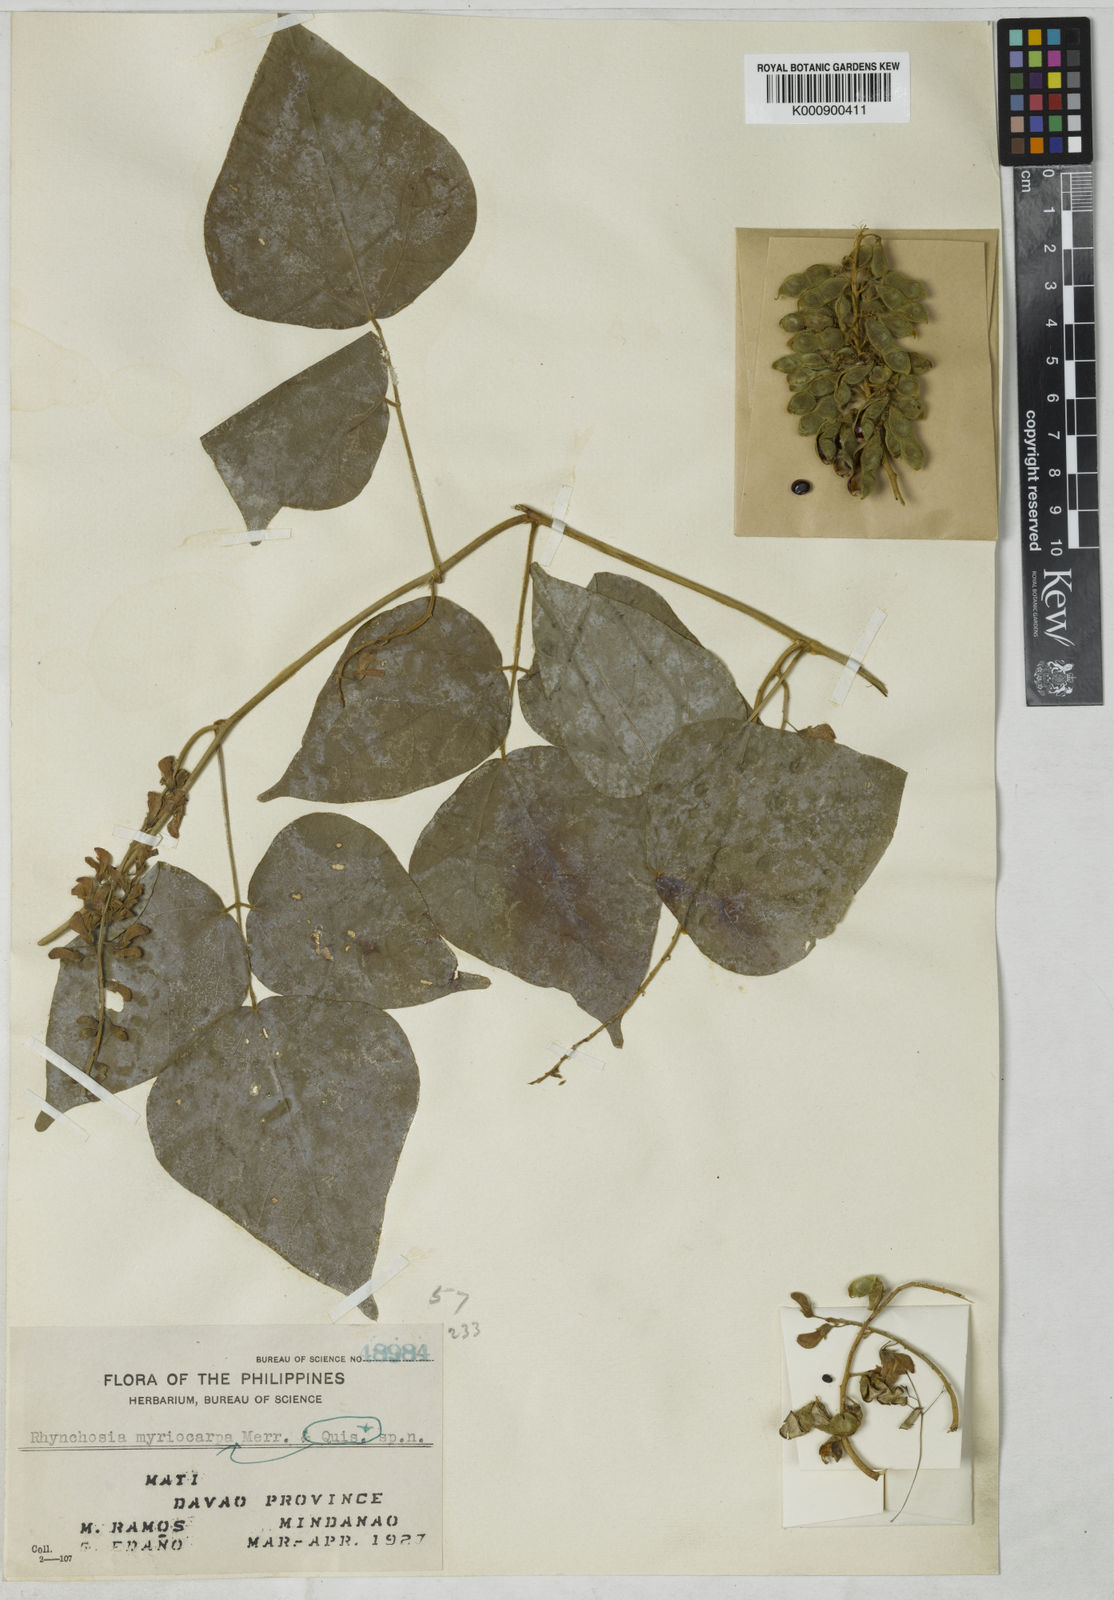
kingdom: Plantae
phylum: Tracheophyta
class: Magnoliopsida
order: Fabales
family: Fabaceae
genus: Rhynchosia
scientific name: Rhynchosia acuminatissima
